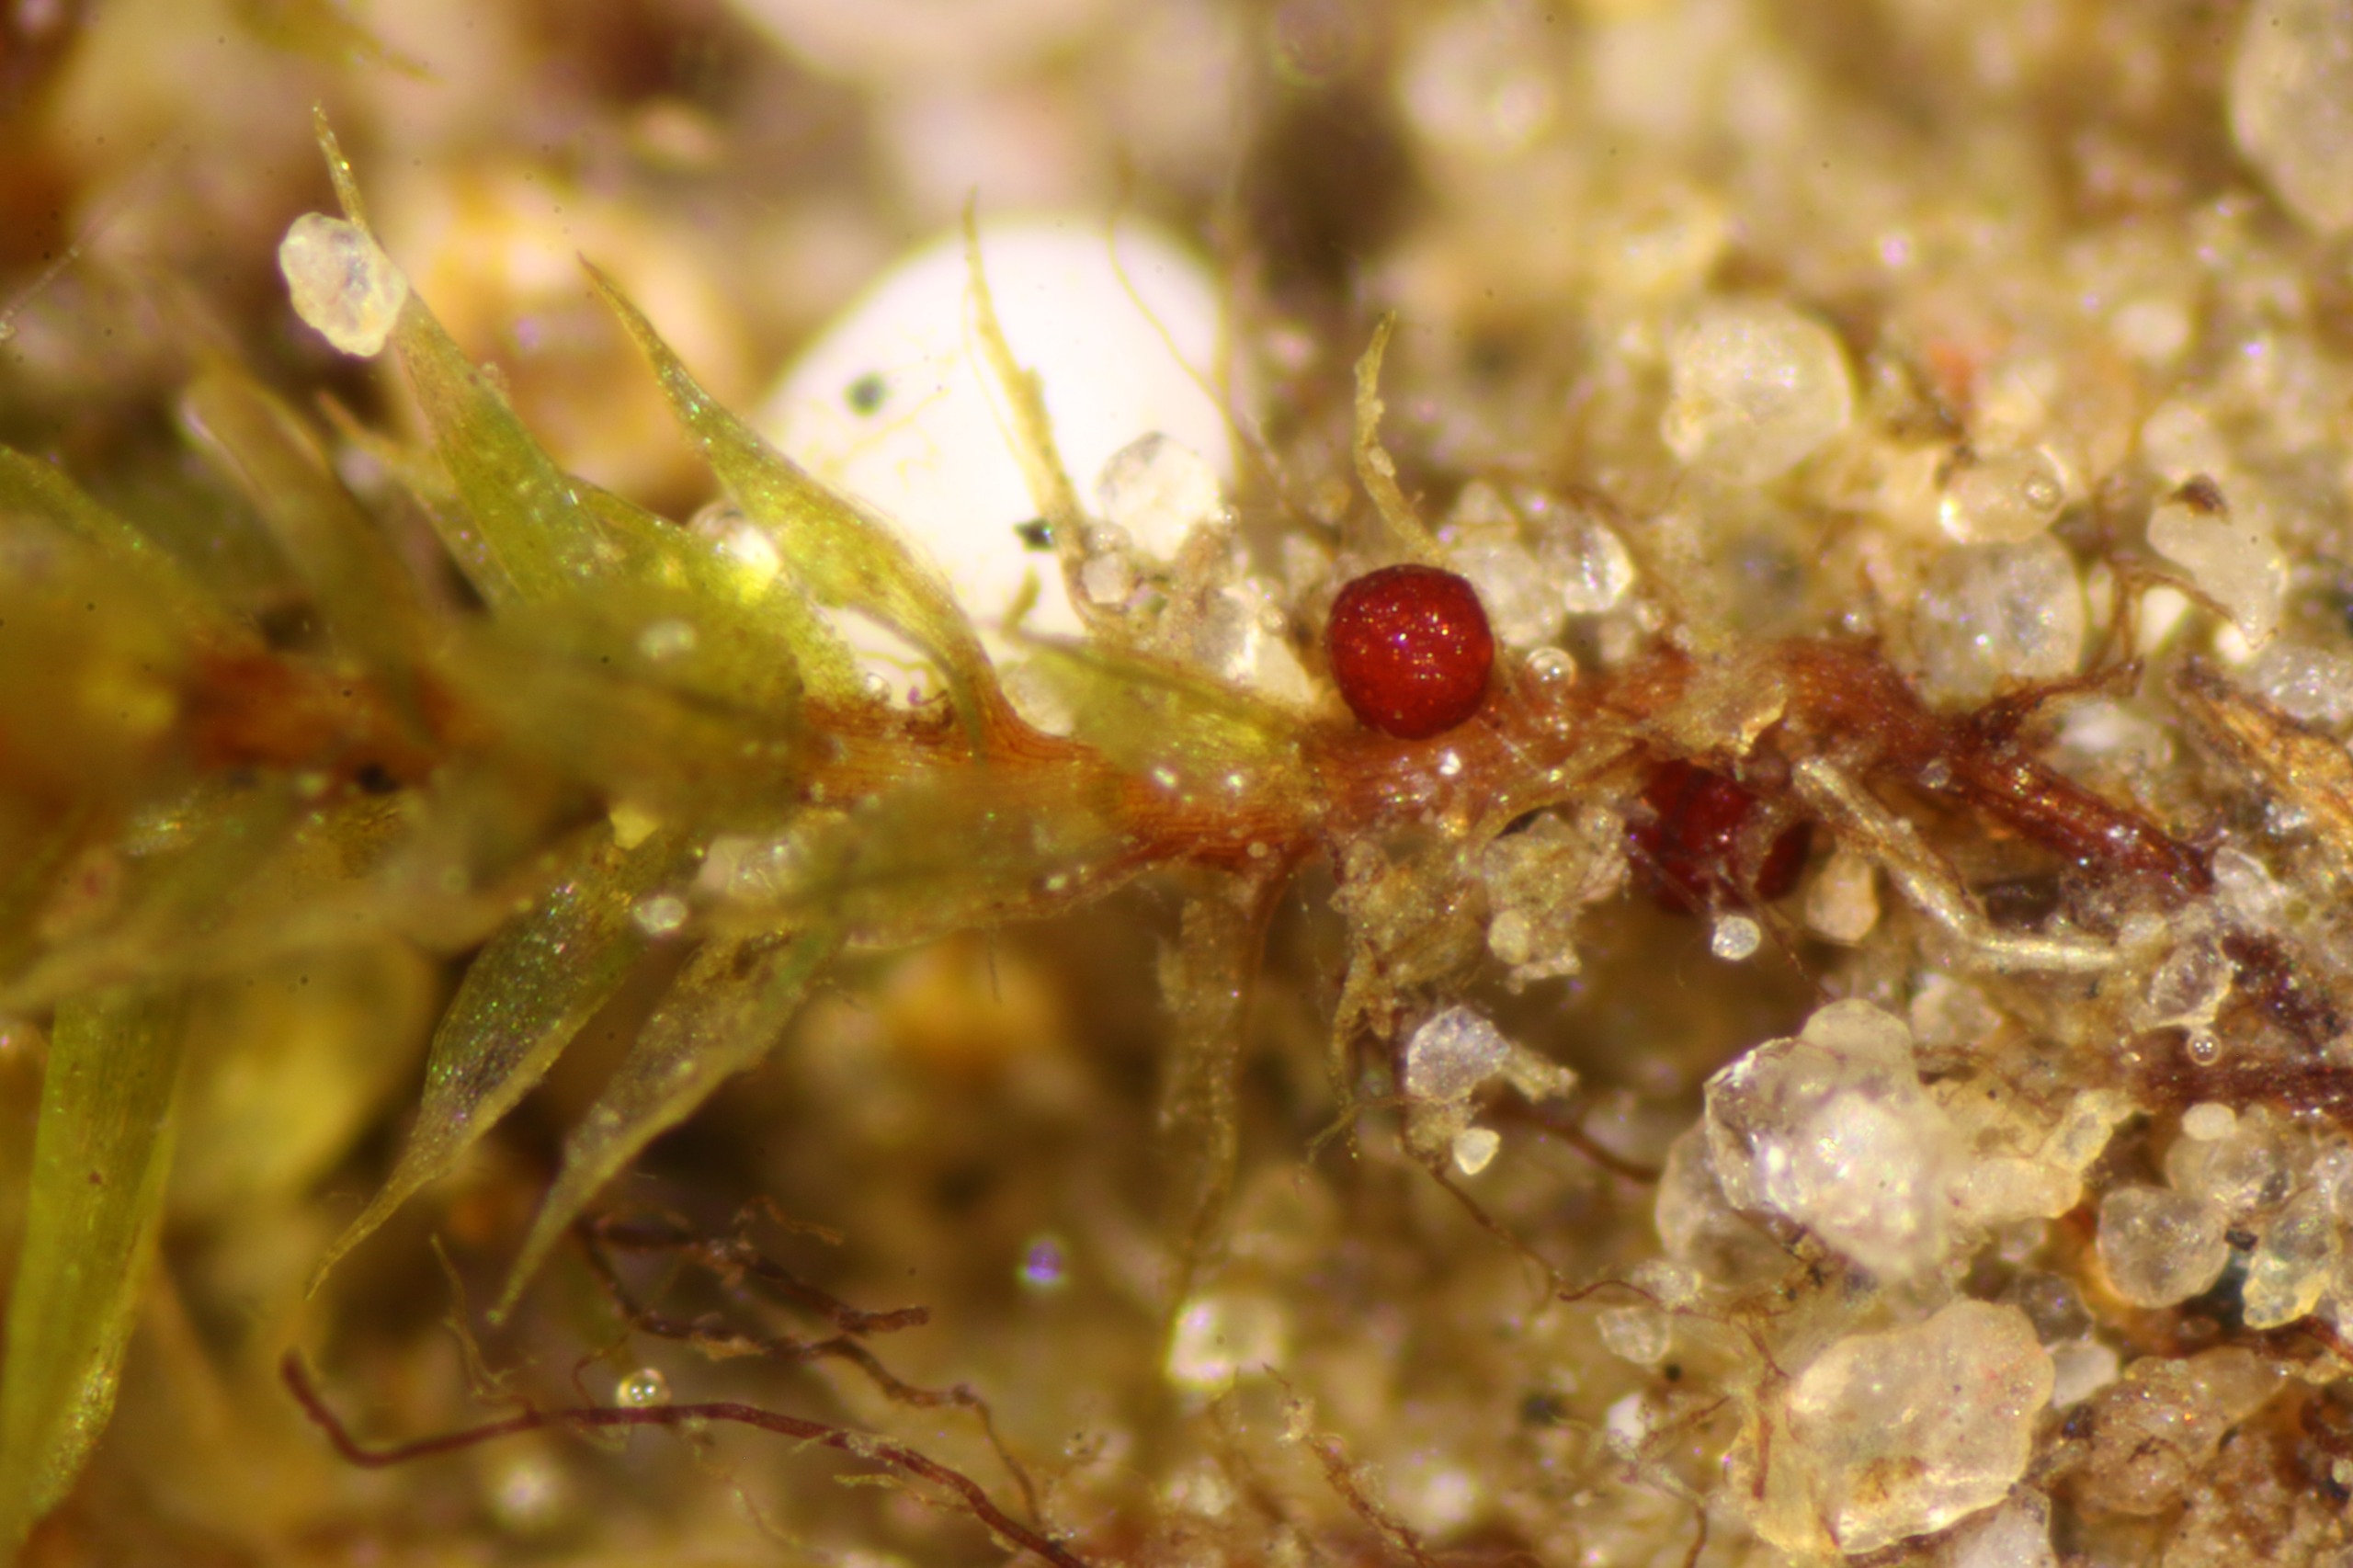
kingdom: Plantae
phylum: Bryophyta
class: Bryopsida
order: Bryales
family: Bryaceae
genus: Rosulabryum
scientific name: Rosulabryum rubens
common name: Mark-bryum
